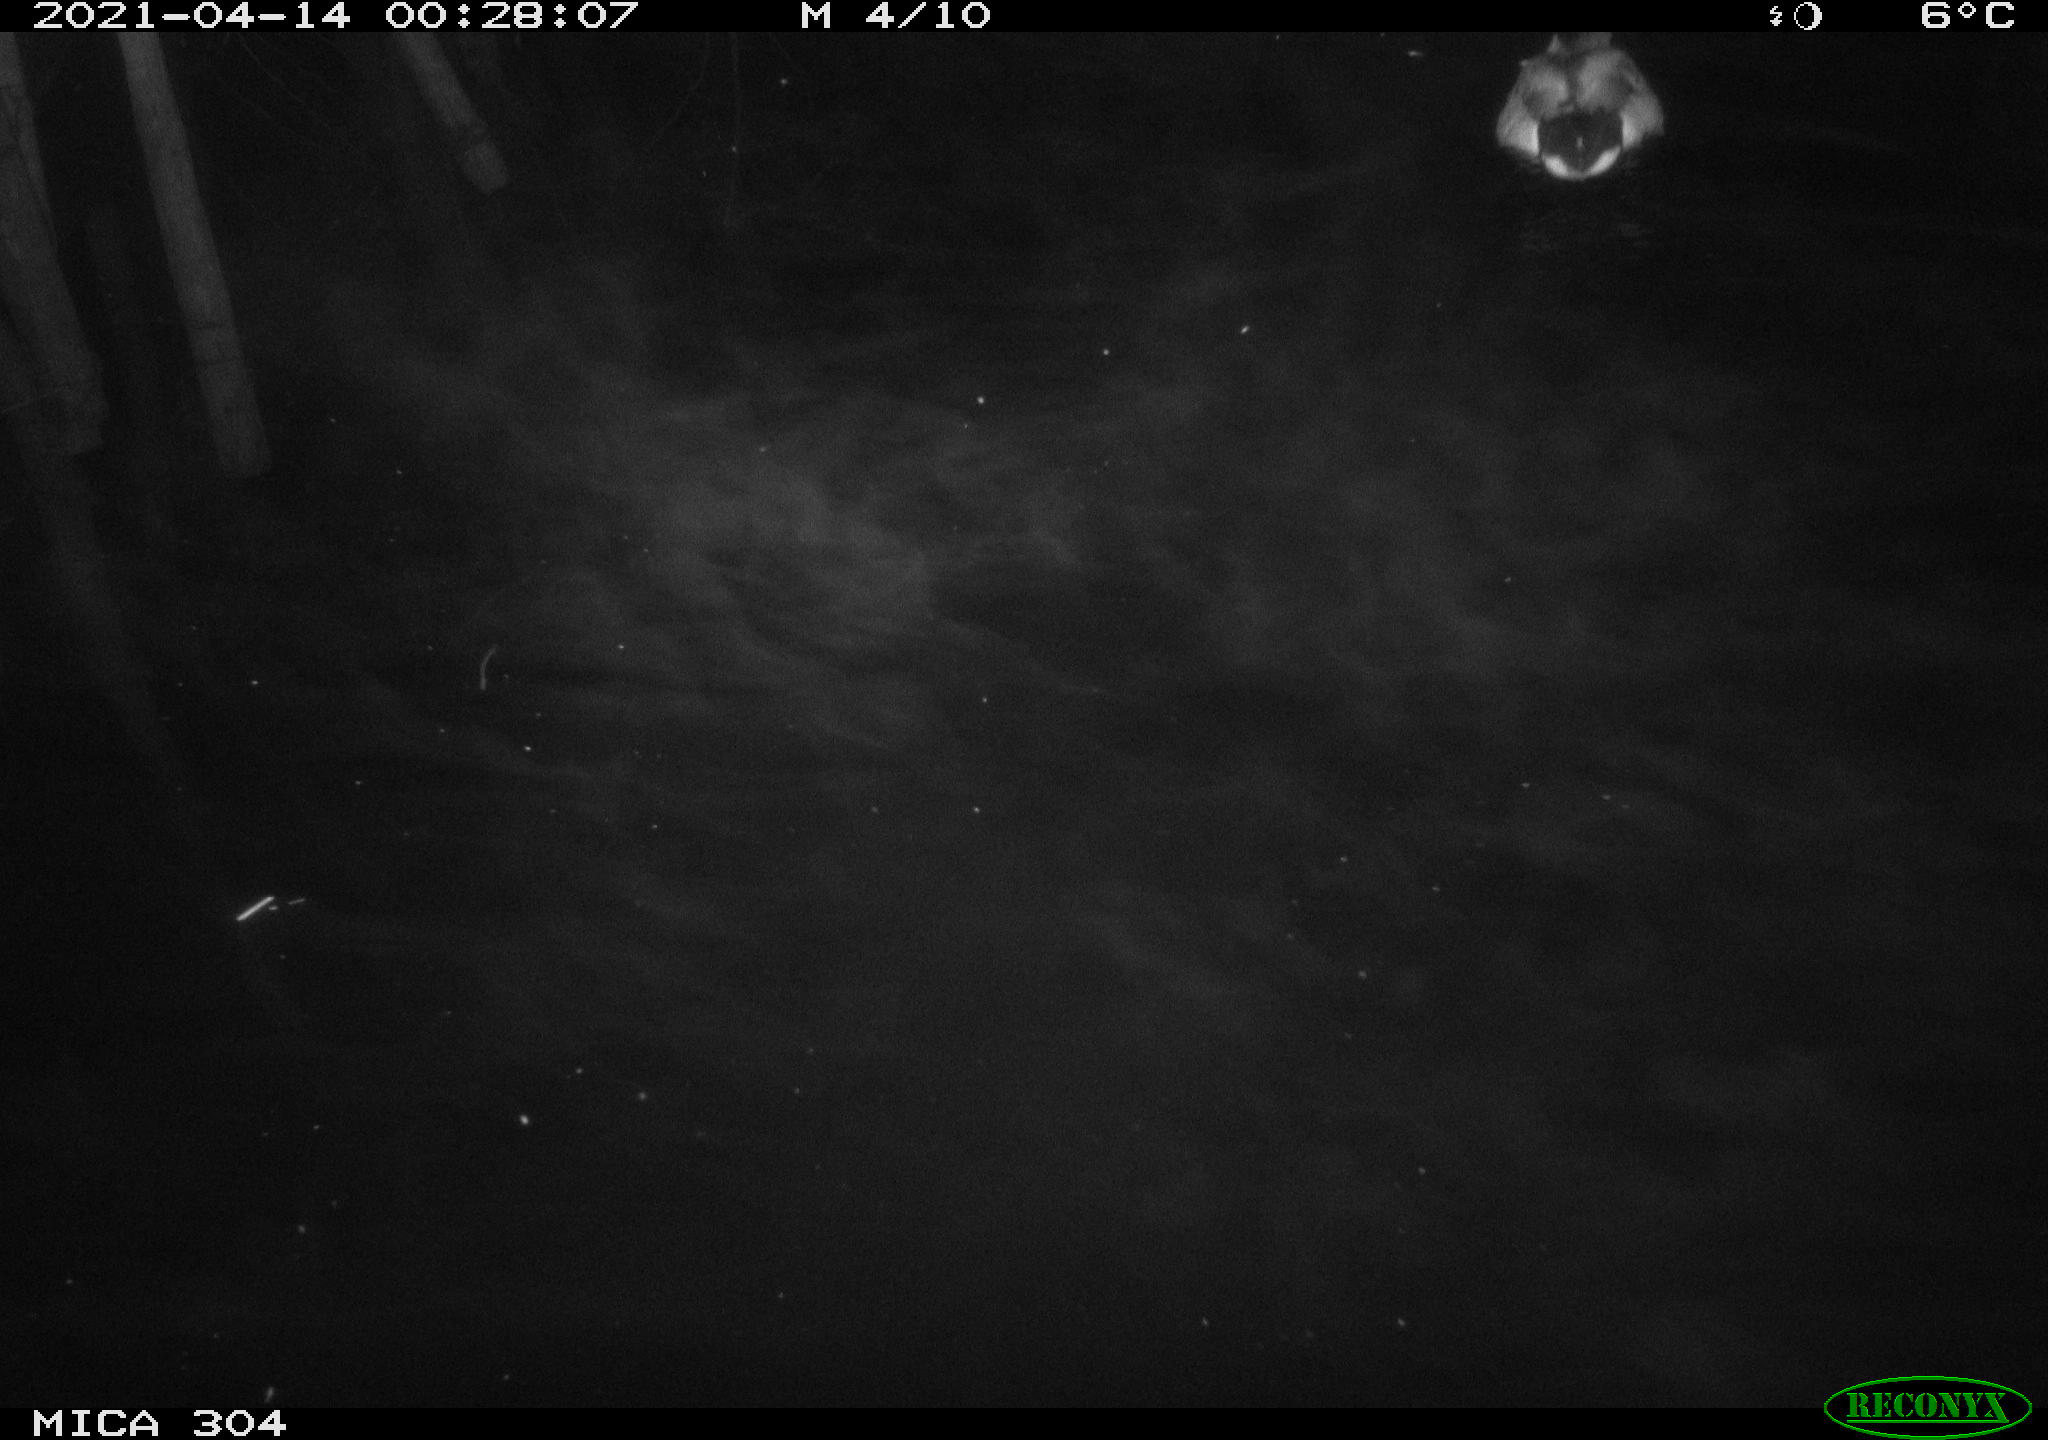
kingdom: Animalia
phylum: Chordata
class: Aves
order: Anseriformes
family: Anatidae
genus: Anas
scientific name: Anas
